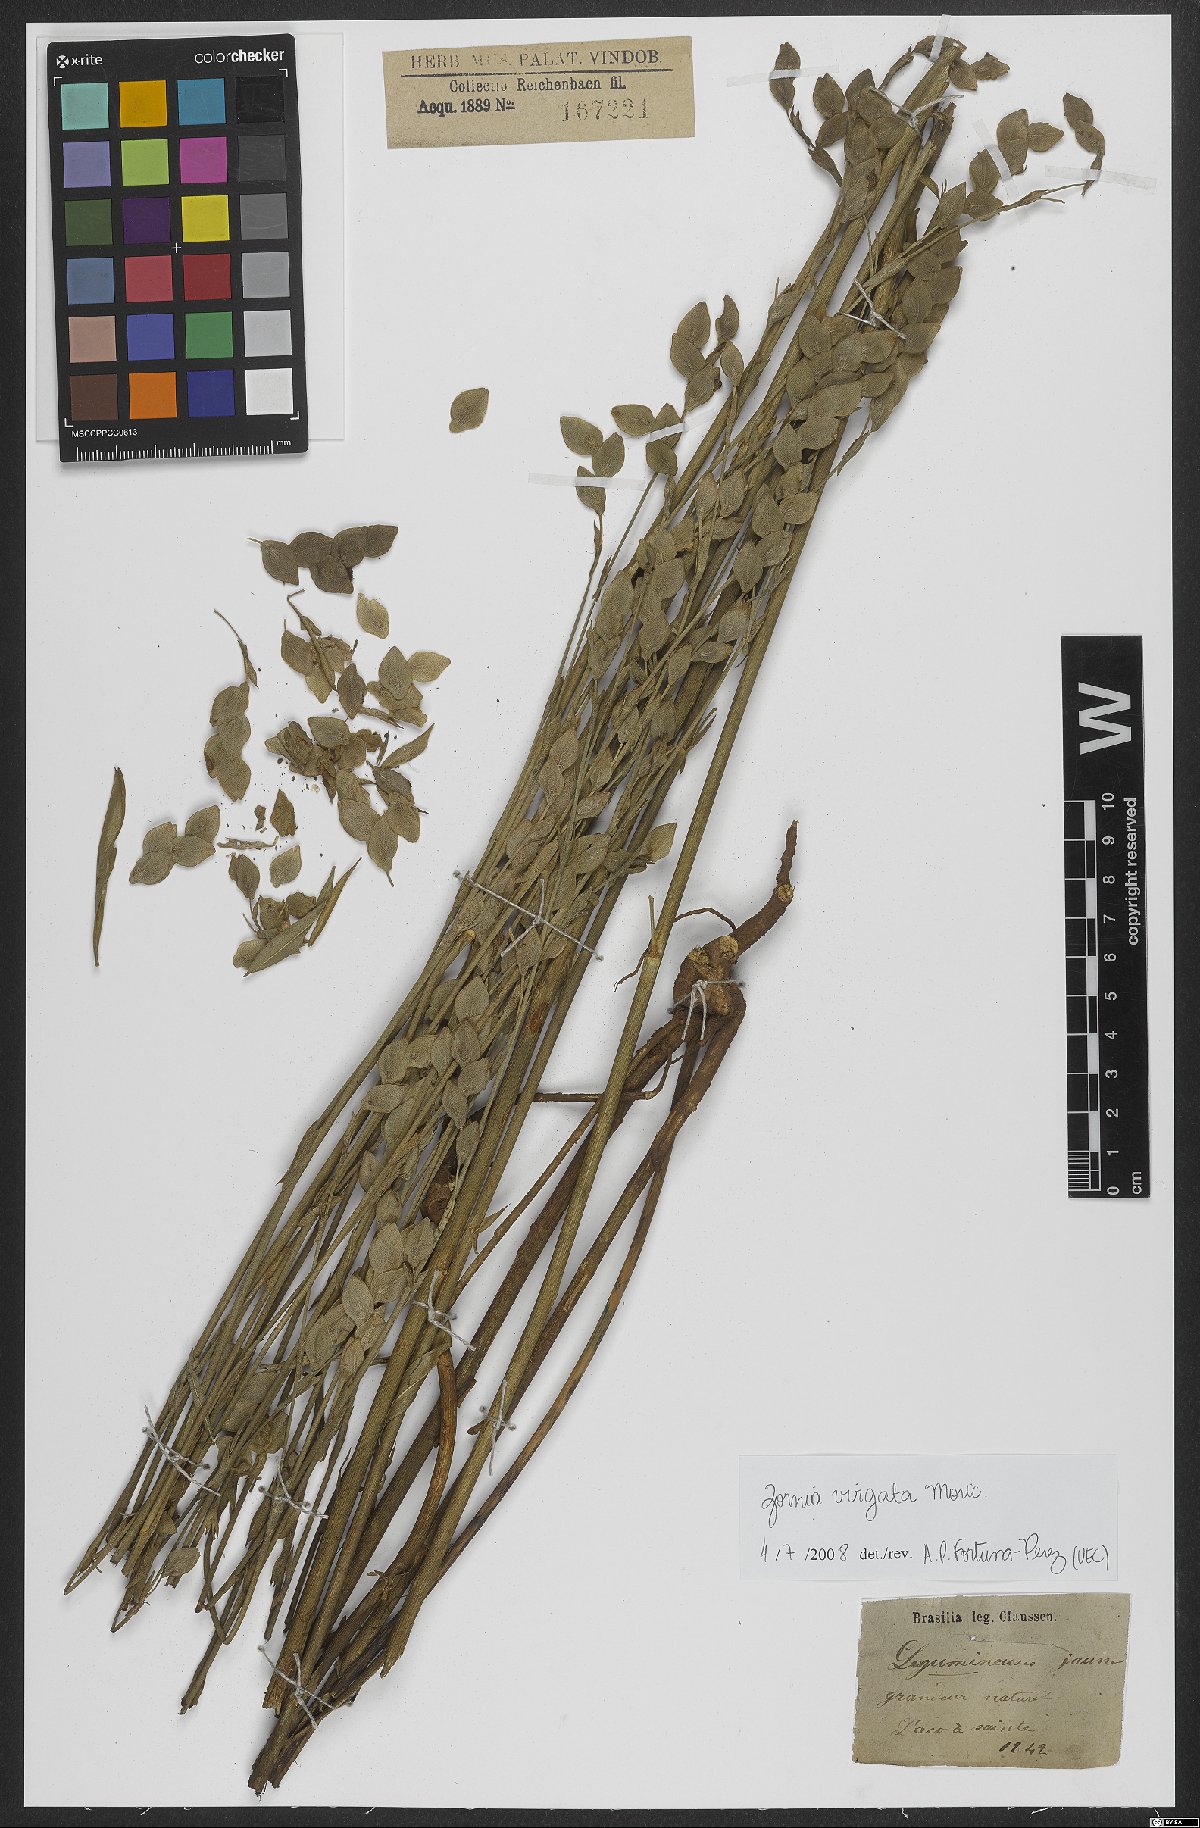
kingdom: Plantae
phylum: Tracheophyta
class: Magnoliopsida
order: Fabales
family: Fabaceae
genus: Zornia
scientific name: Zornia virgata
